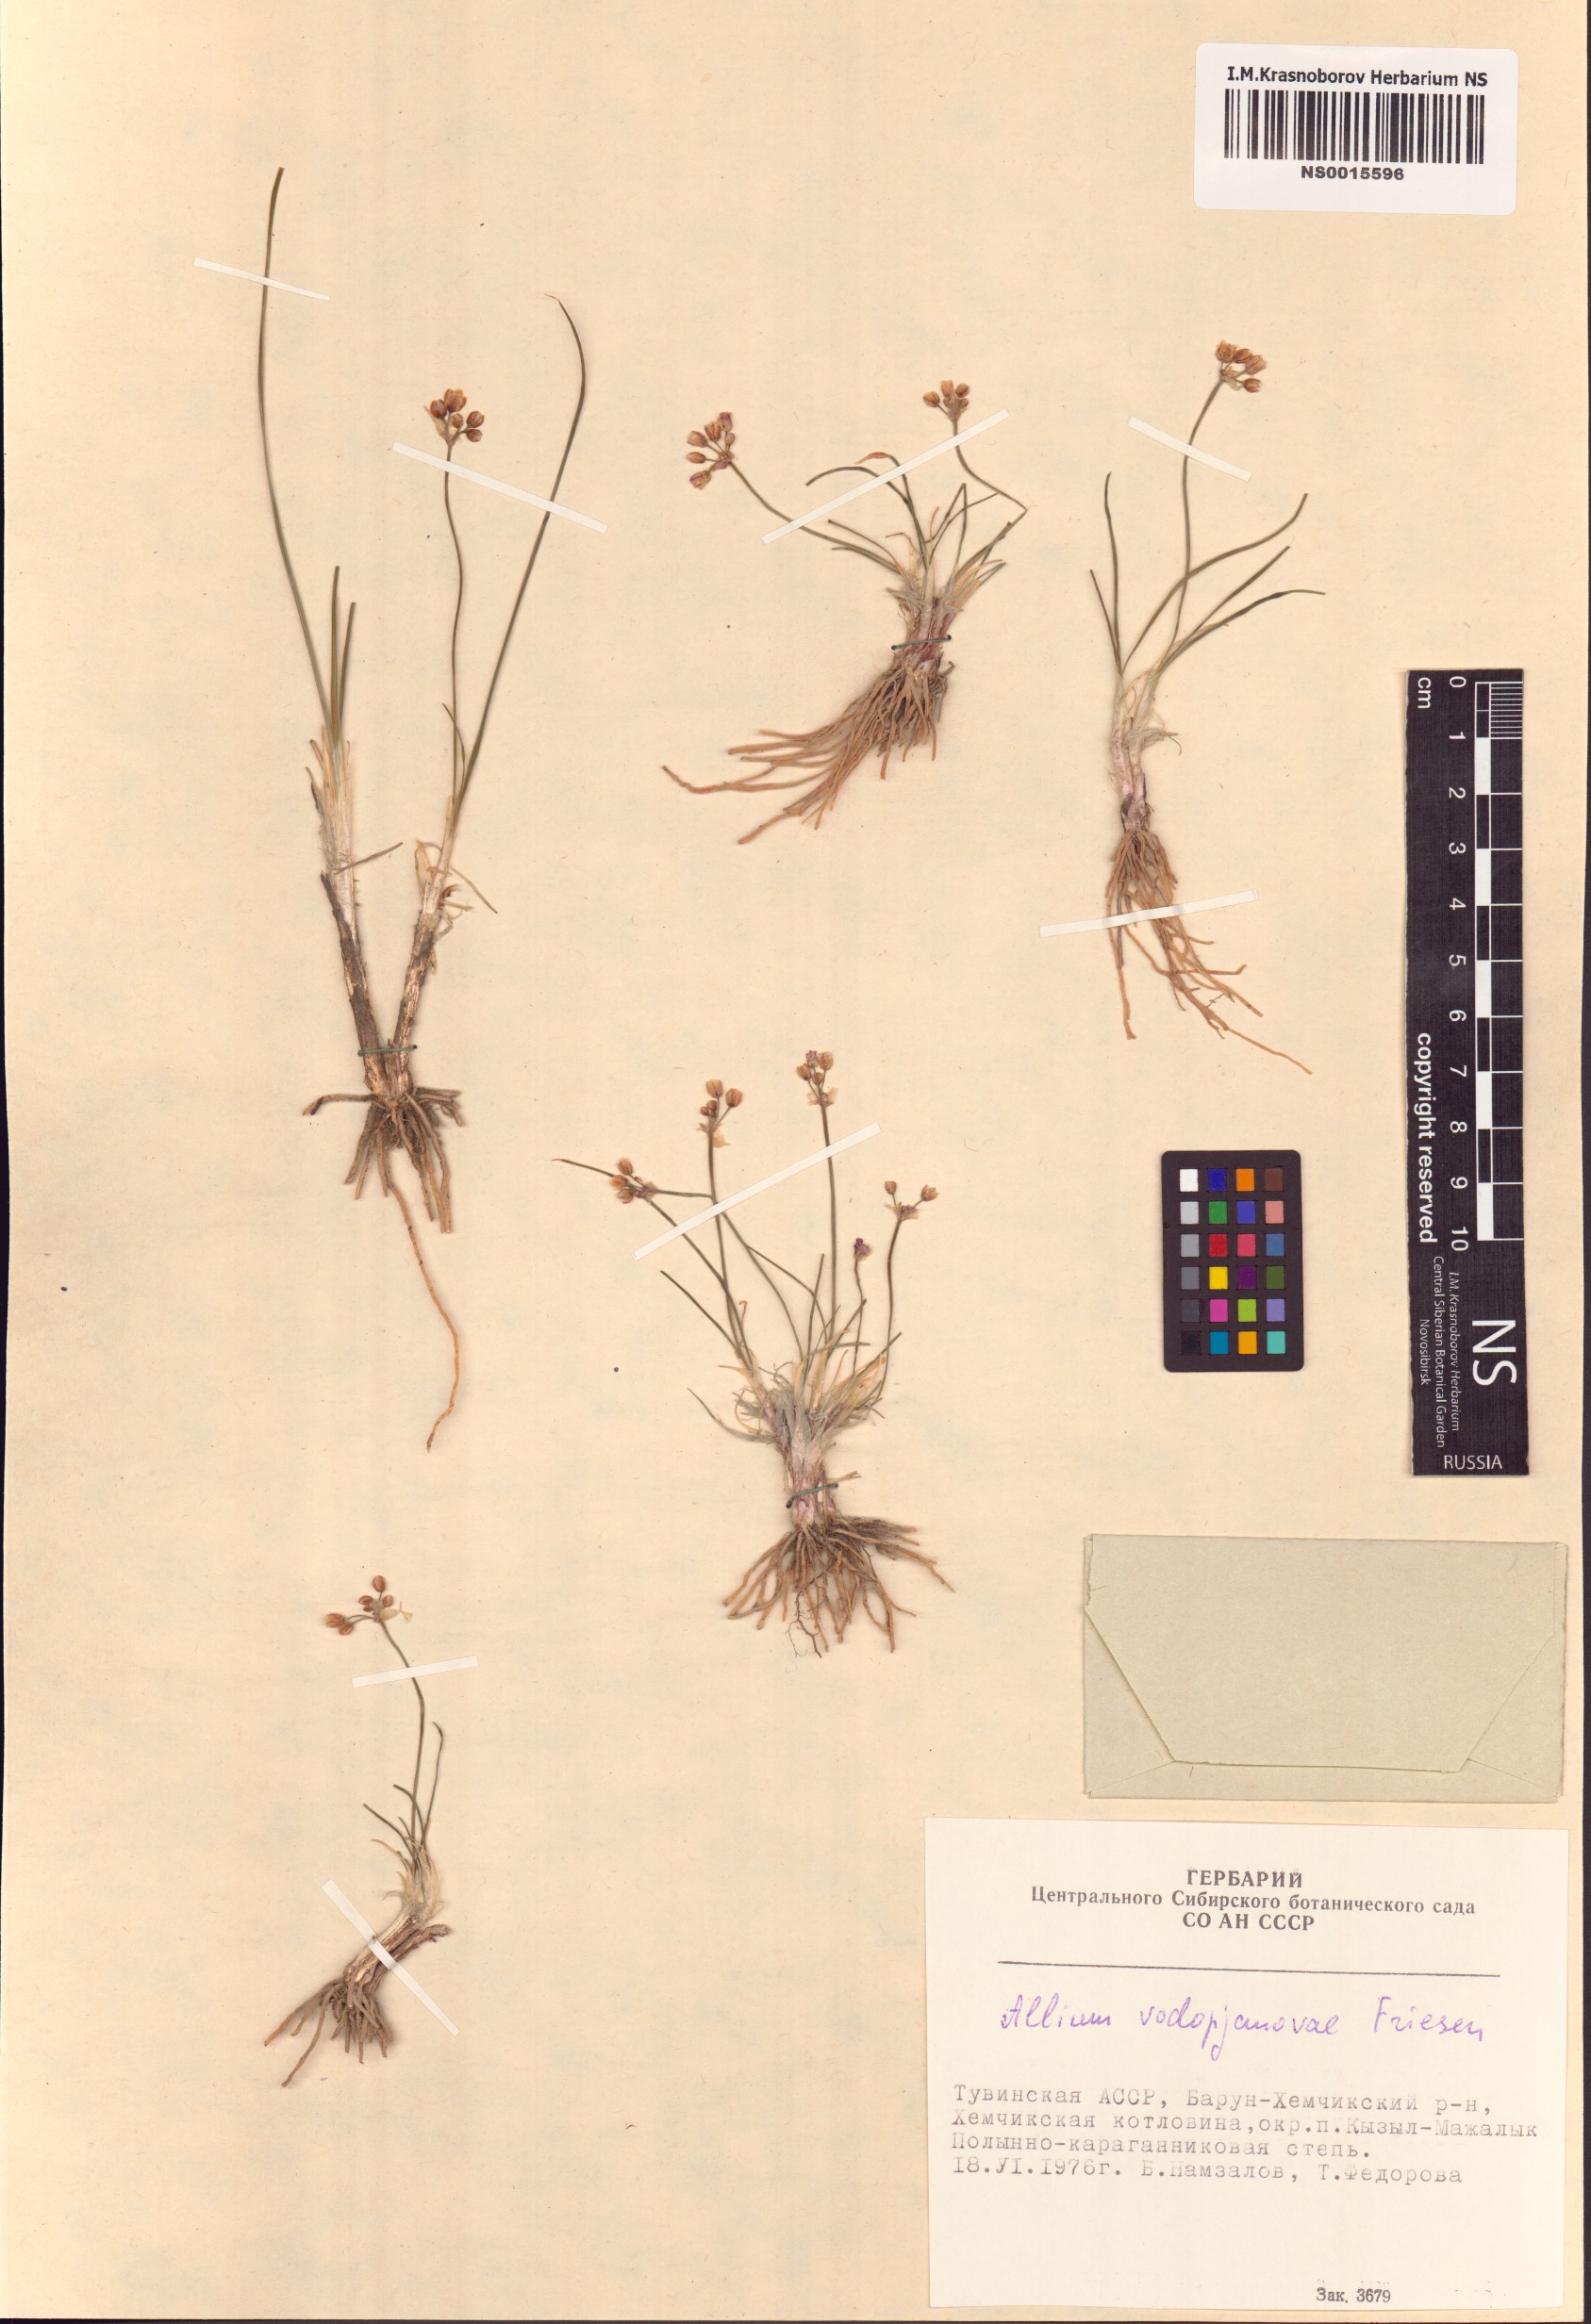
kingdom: Plantae
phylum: Tracheophyta
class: Liliopsida
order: Asparagales
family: Amaryllidaceae
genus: Allium
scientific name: Allium vodopjanovae
